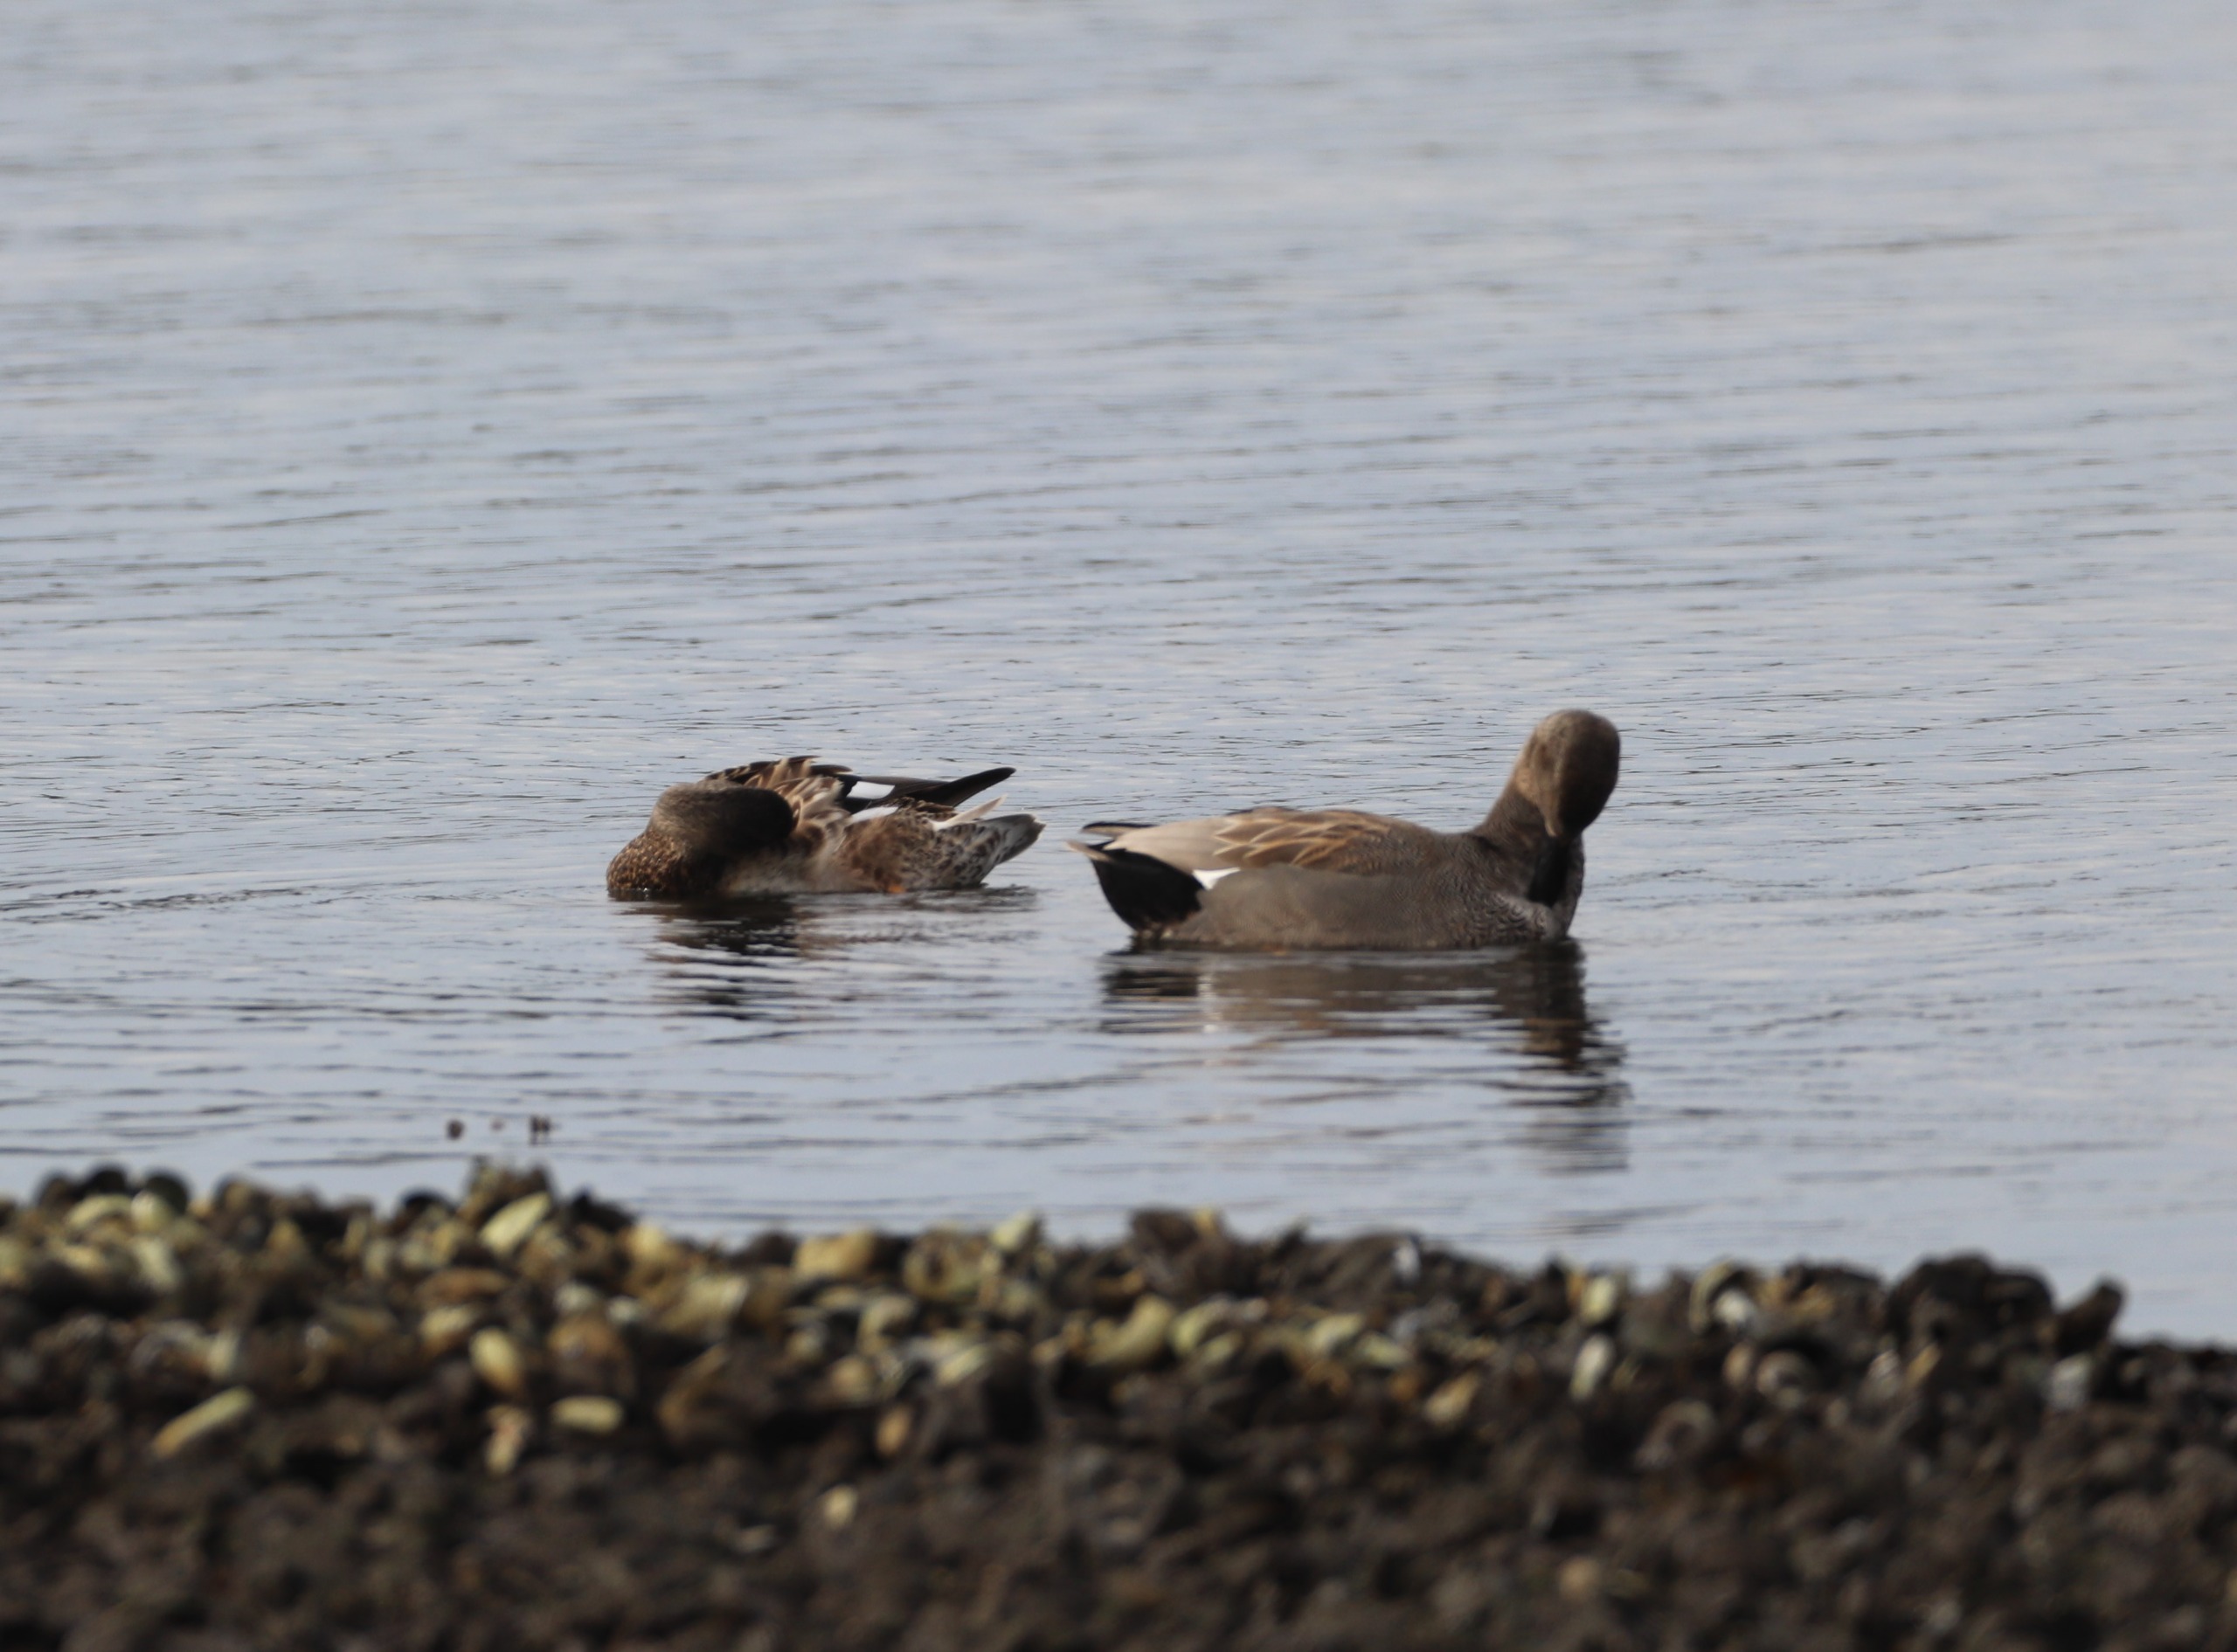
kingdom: Animalia
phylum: Chordata
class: Aves
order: Anseriformes
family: Anatidae
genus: Mareca
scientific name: Mareca strepera
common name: Knarand
